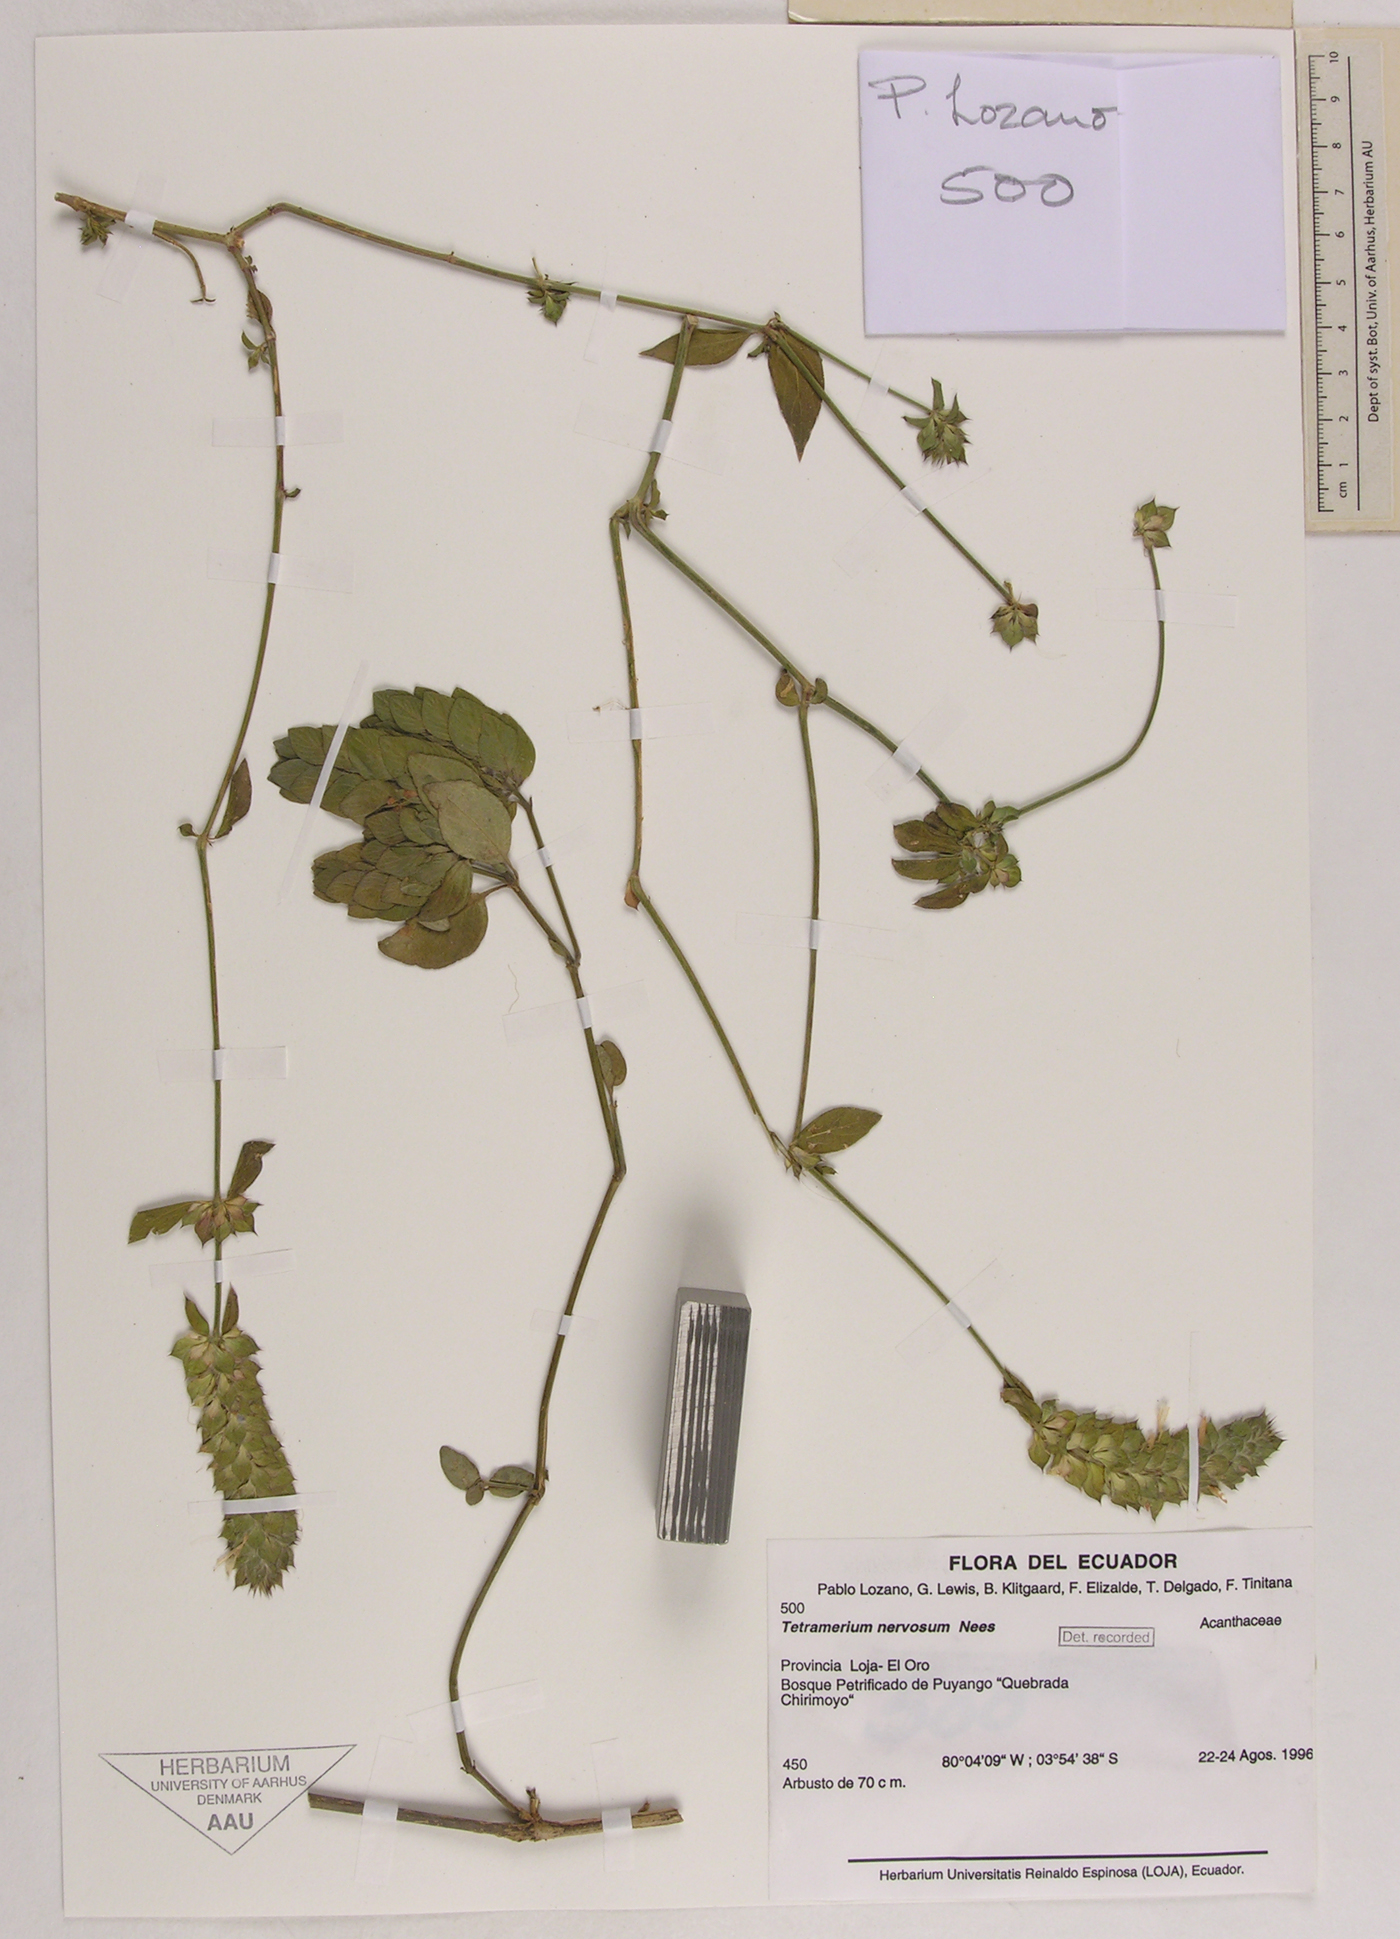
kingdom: Plantae
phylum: Tracheophyta
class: Magnoliopsida
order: Lamiales
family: Acanthaceae
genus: Tetramerium
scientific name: Tetramerium nervosum
